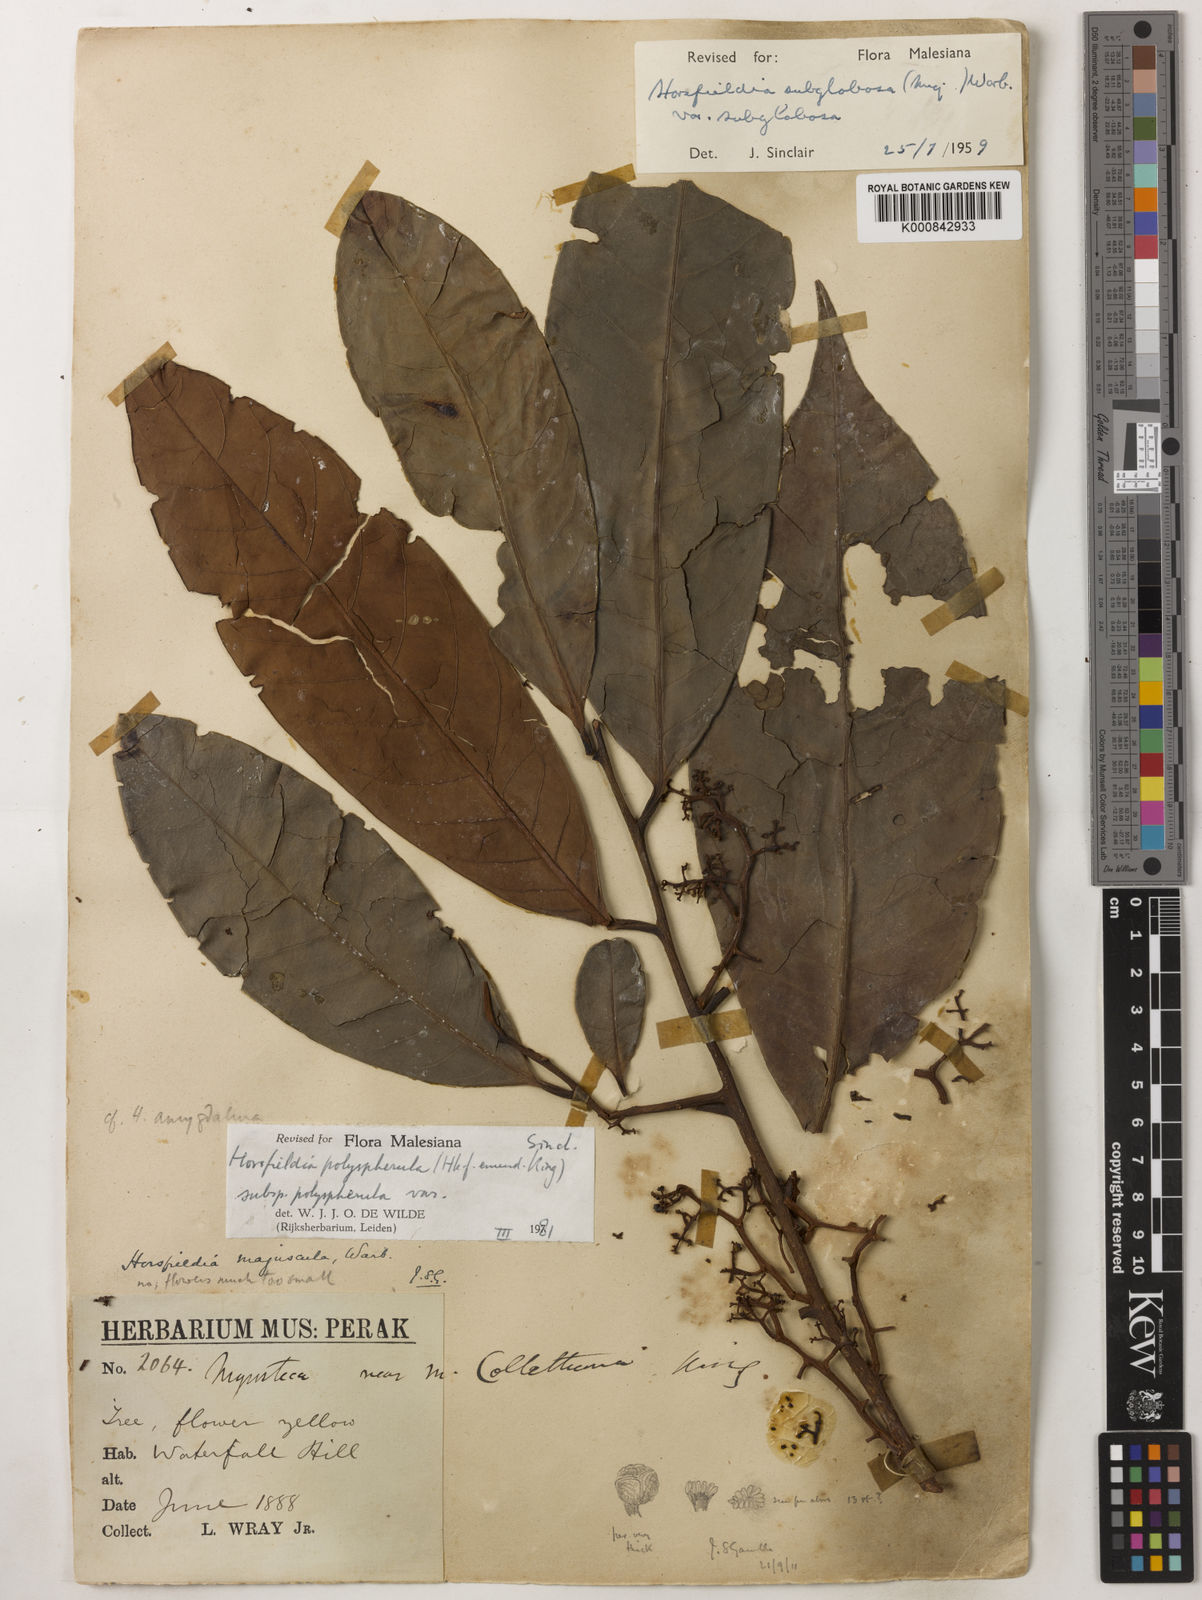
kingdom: Plantae
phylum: Tracheophyta
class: Magnoliopsida
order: Magnoliales
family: Myristicaceae
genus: Horsfieldia
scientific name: Horsfieldia
